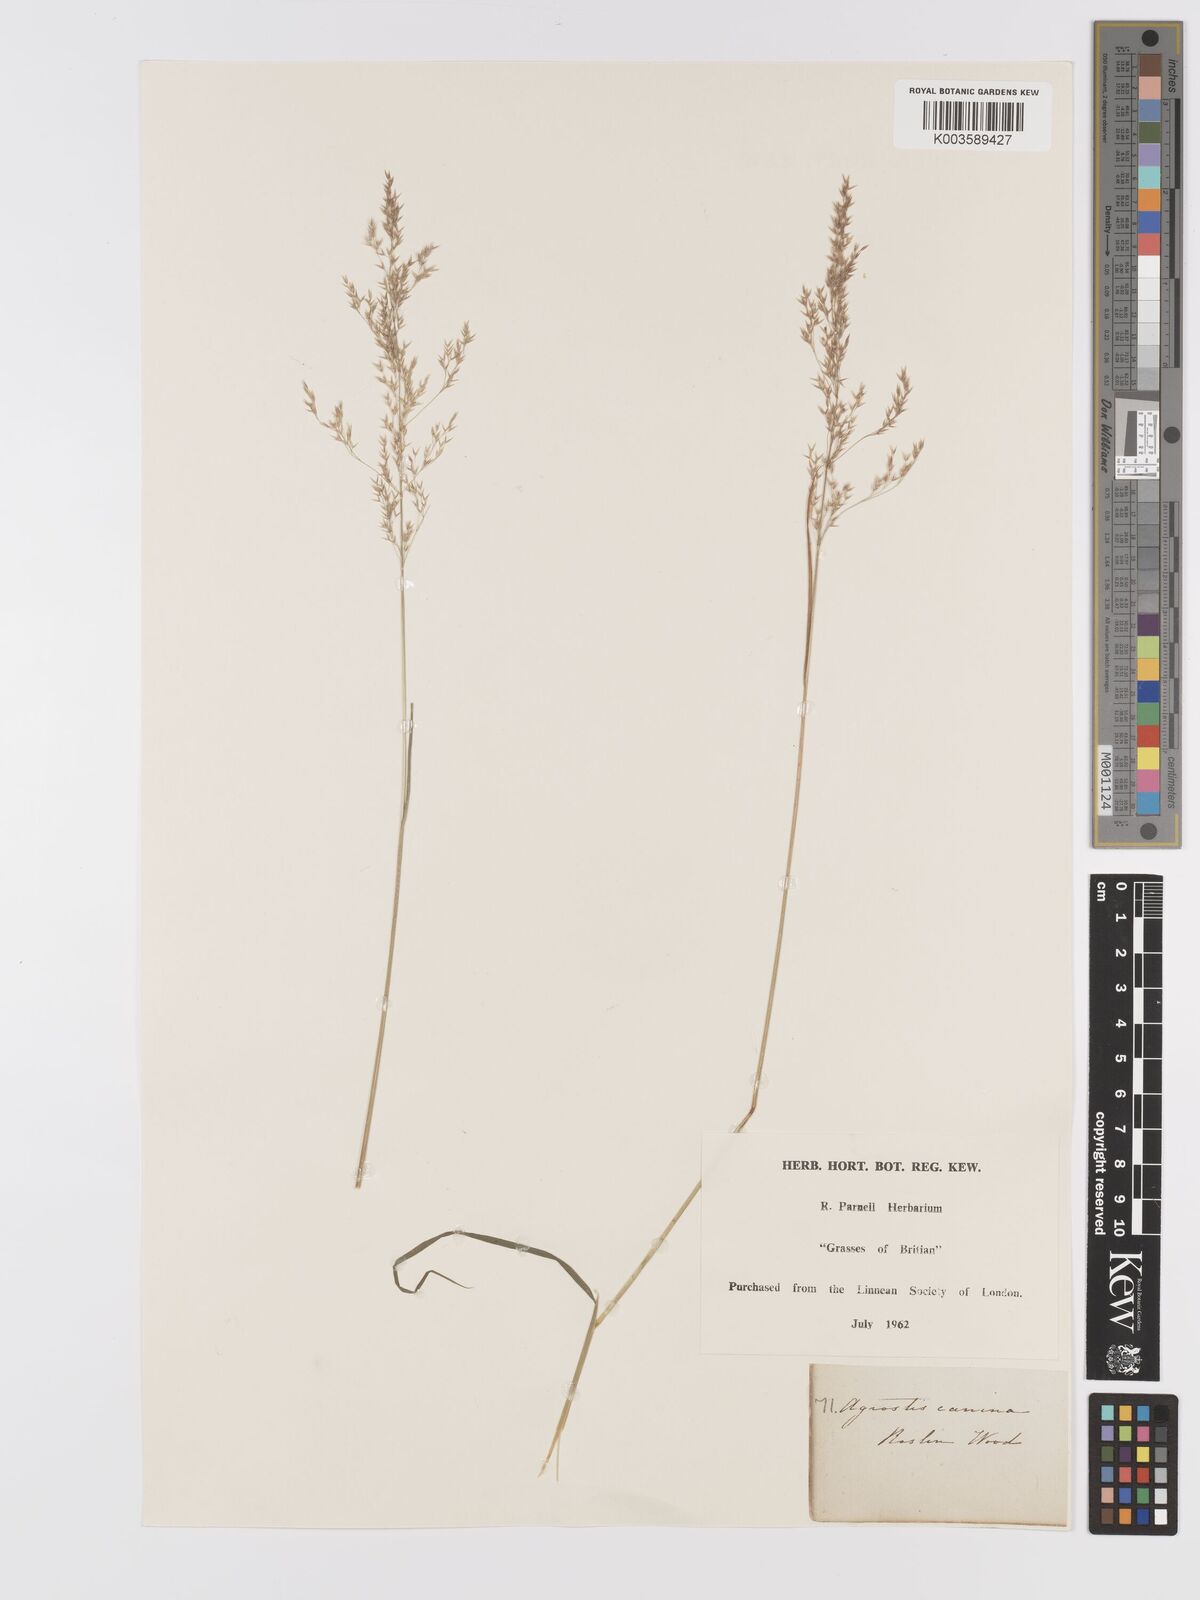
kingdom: Plantae
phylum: Tracheophyta
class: Liliopsida
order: Poales
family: Poaceae
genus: Agrostis
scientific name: Agrostis canina
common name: Velvet bent
